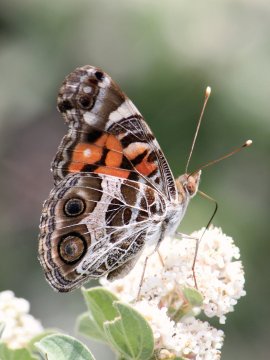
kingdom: Animalia
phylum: Arthropoda
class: Insecta
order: Lepidoptera
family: Nymphalidae
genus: Vanessa
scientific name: Vanessa virginiensis
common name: American Lady
